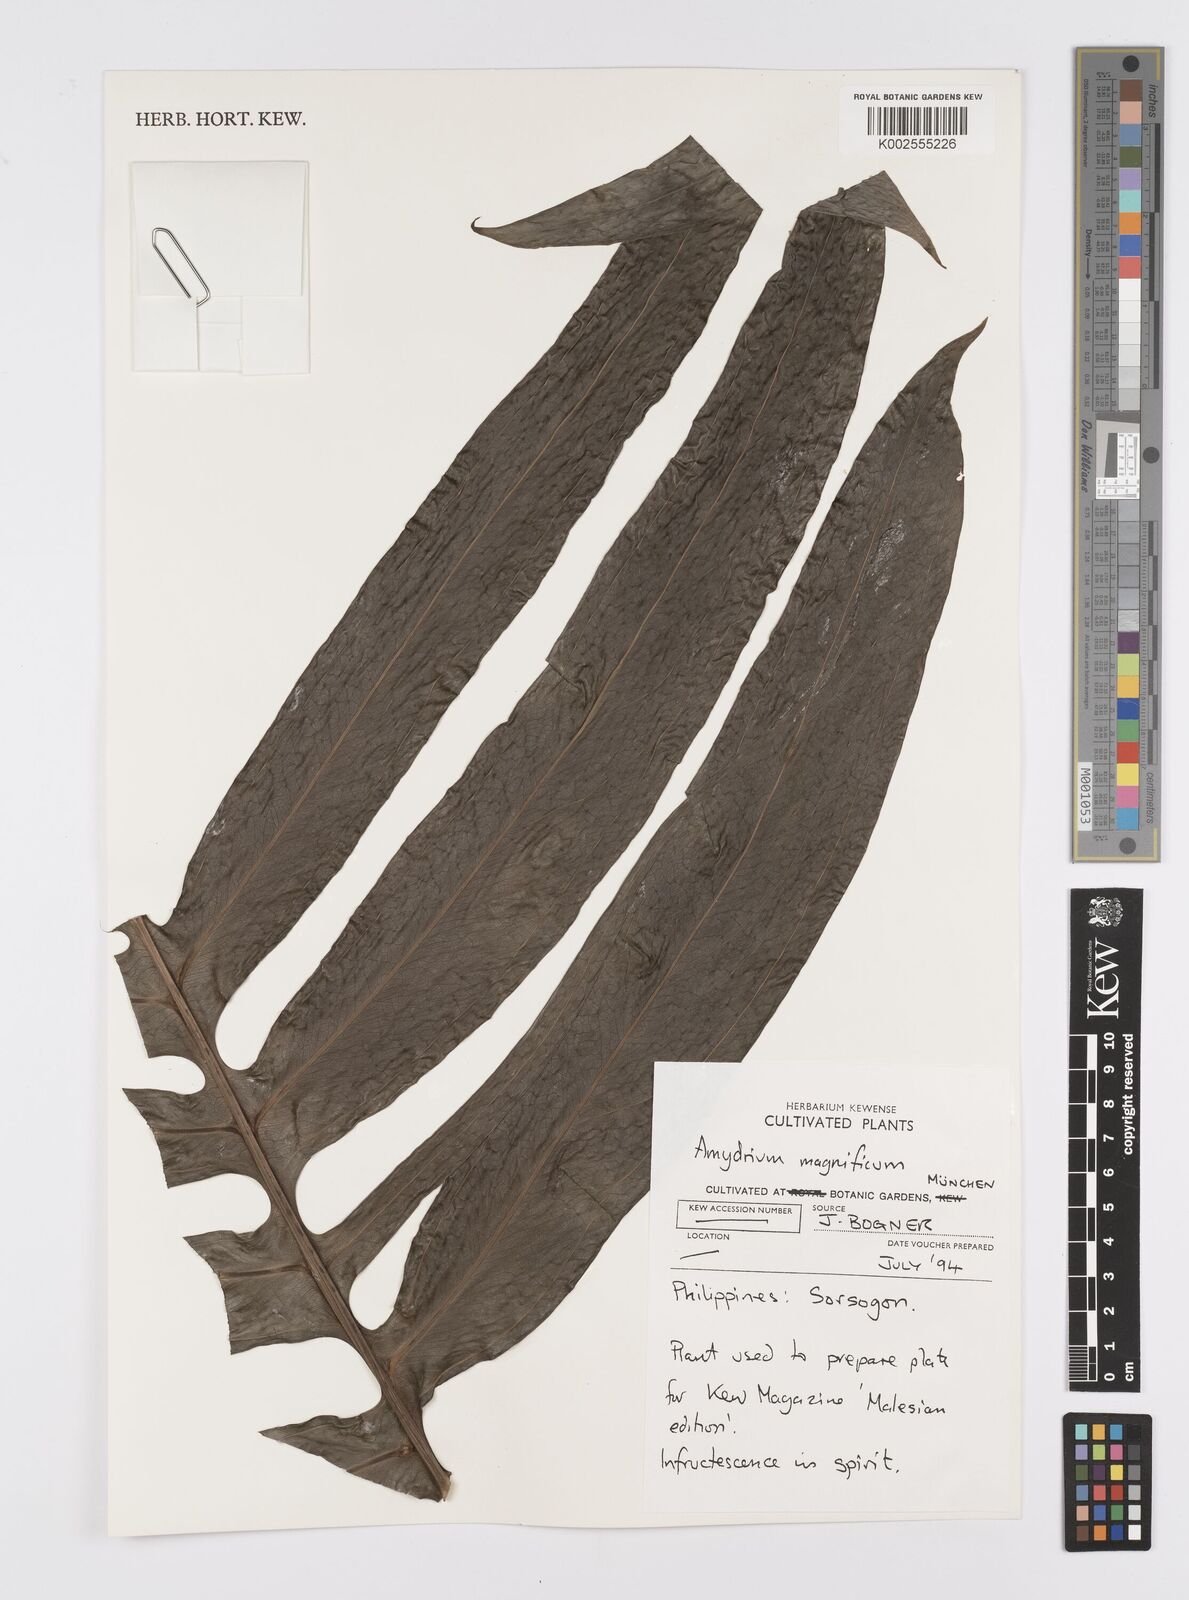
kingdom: Plantae
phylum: Tracheophyta
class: Liliopsida
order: Alismatales
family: Araceae
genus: Amydrium
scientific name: Amydrium zippelianum
